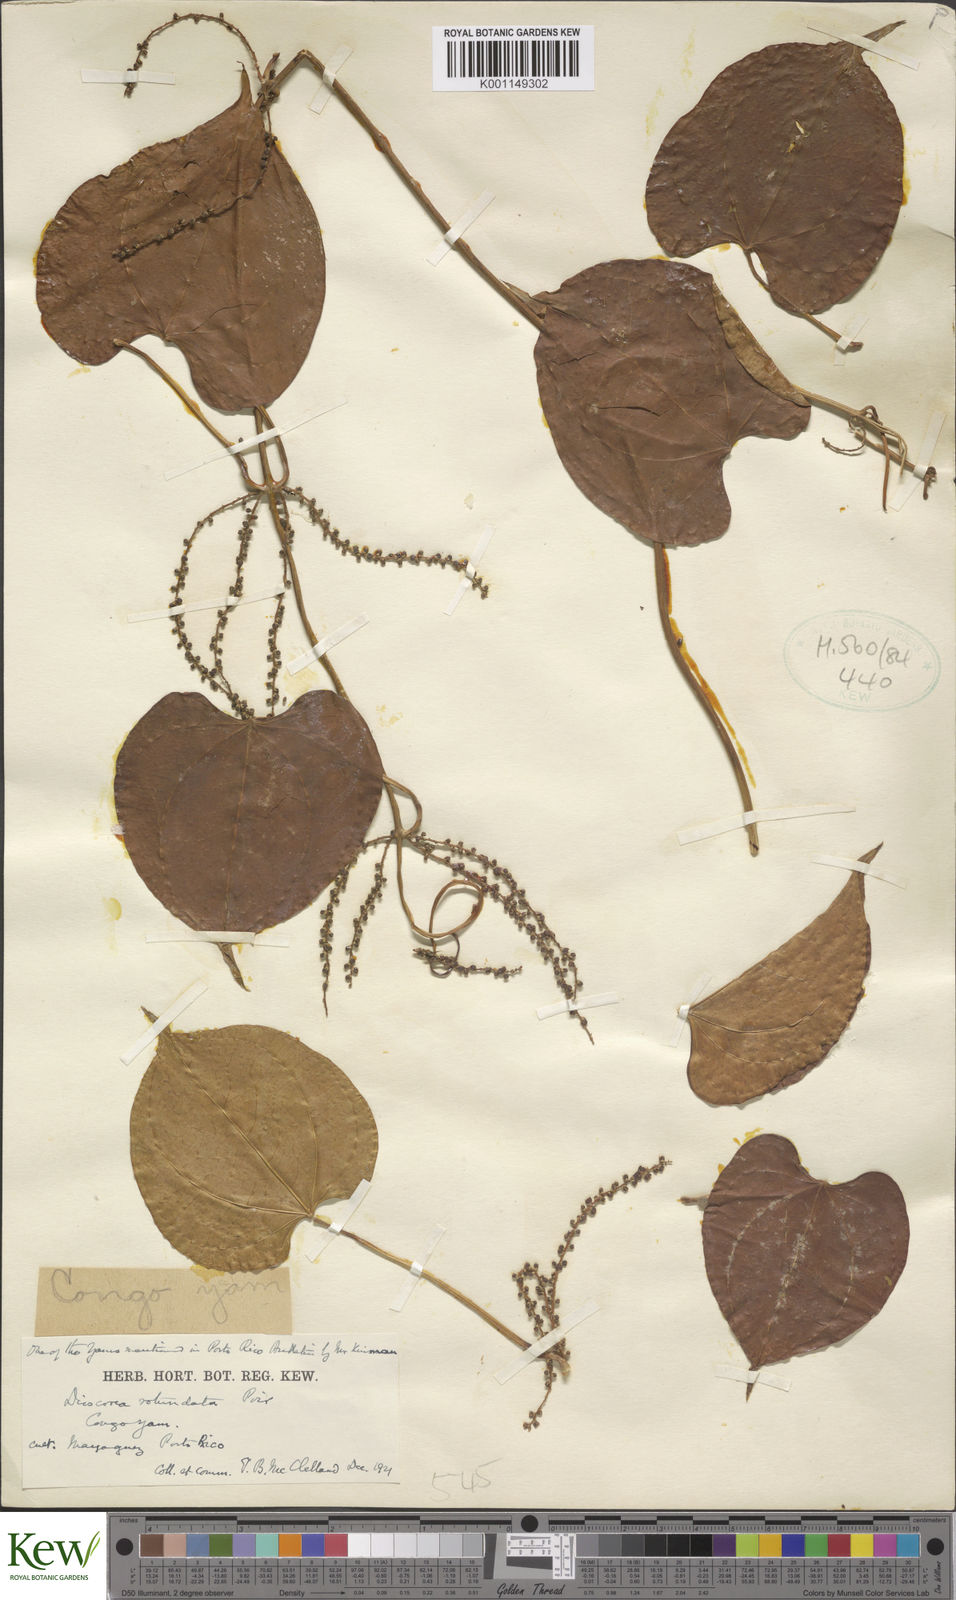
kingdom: Plantae
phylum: Tracheophyta
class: Liliopsida
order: Dioscoreales
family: Dioscoreaceae
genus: Dioscorea
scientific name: Dioscorea cayenensis
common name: Attoto yam
